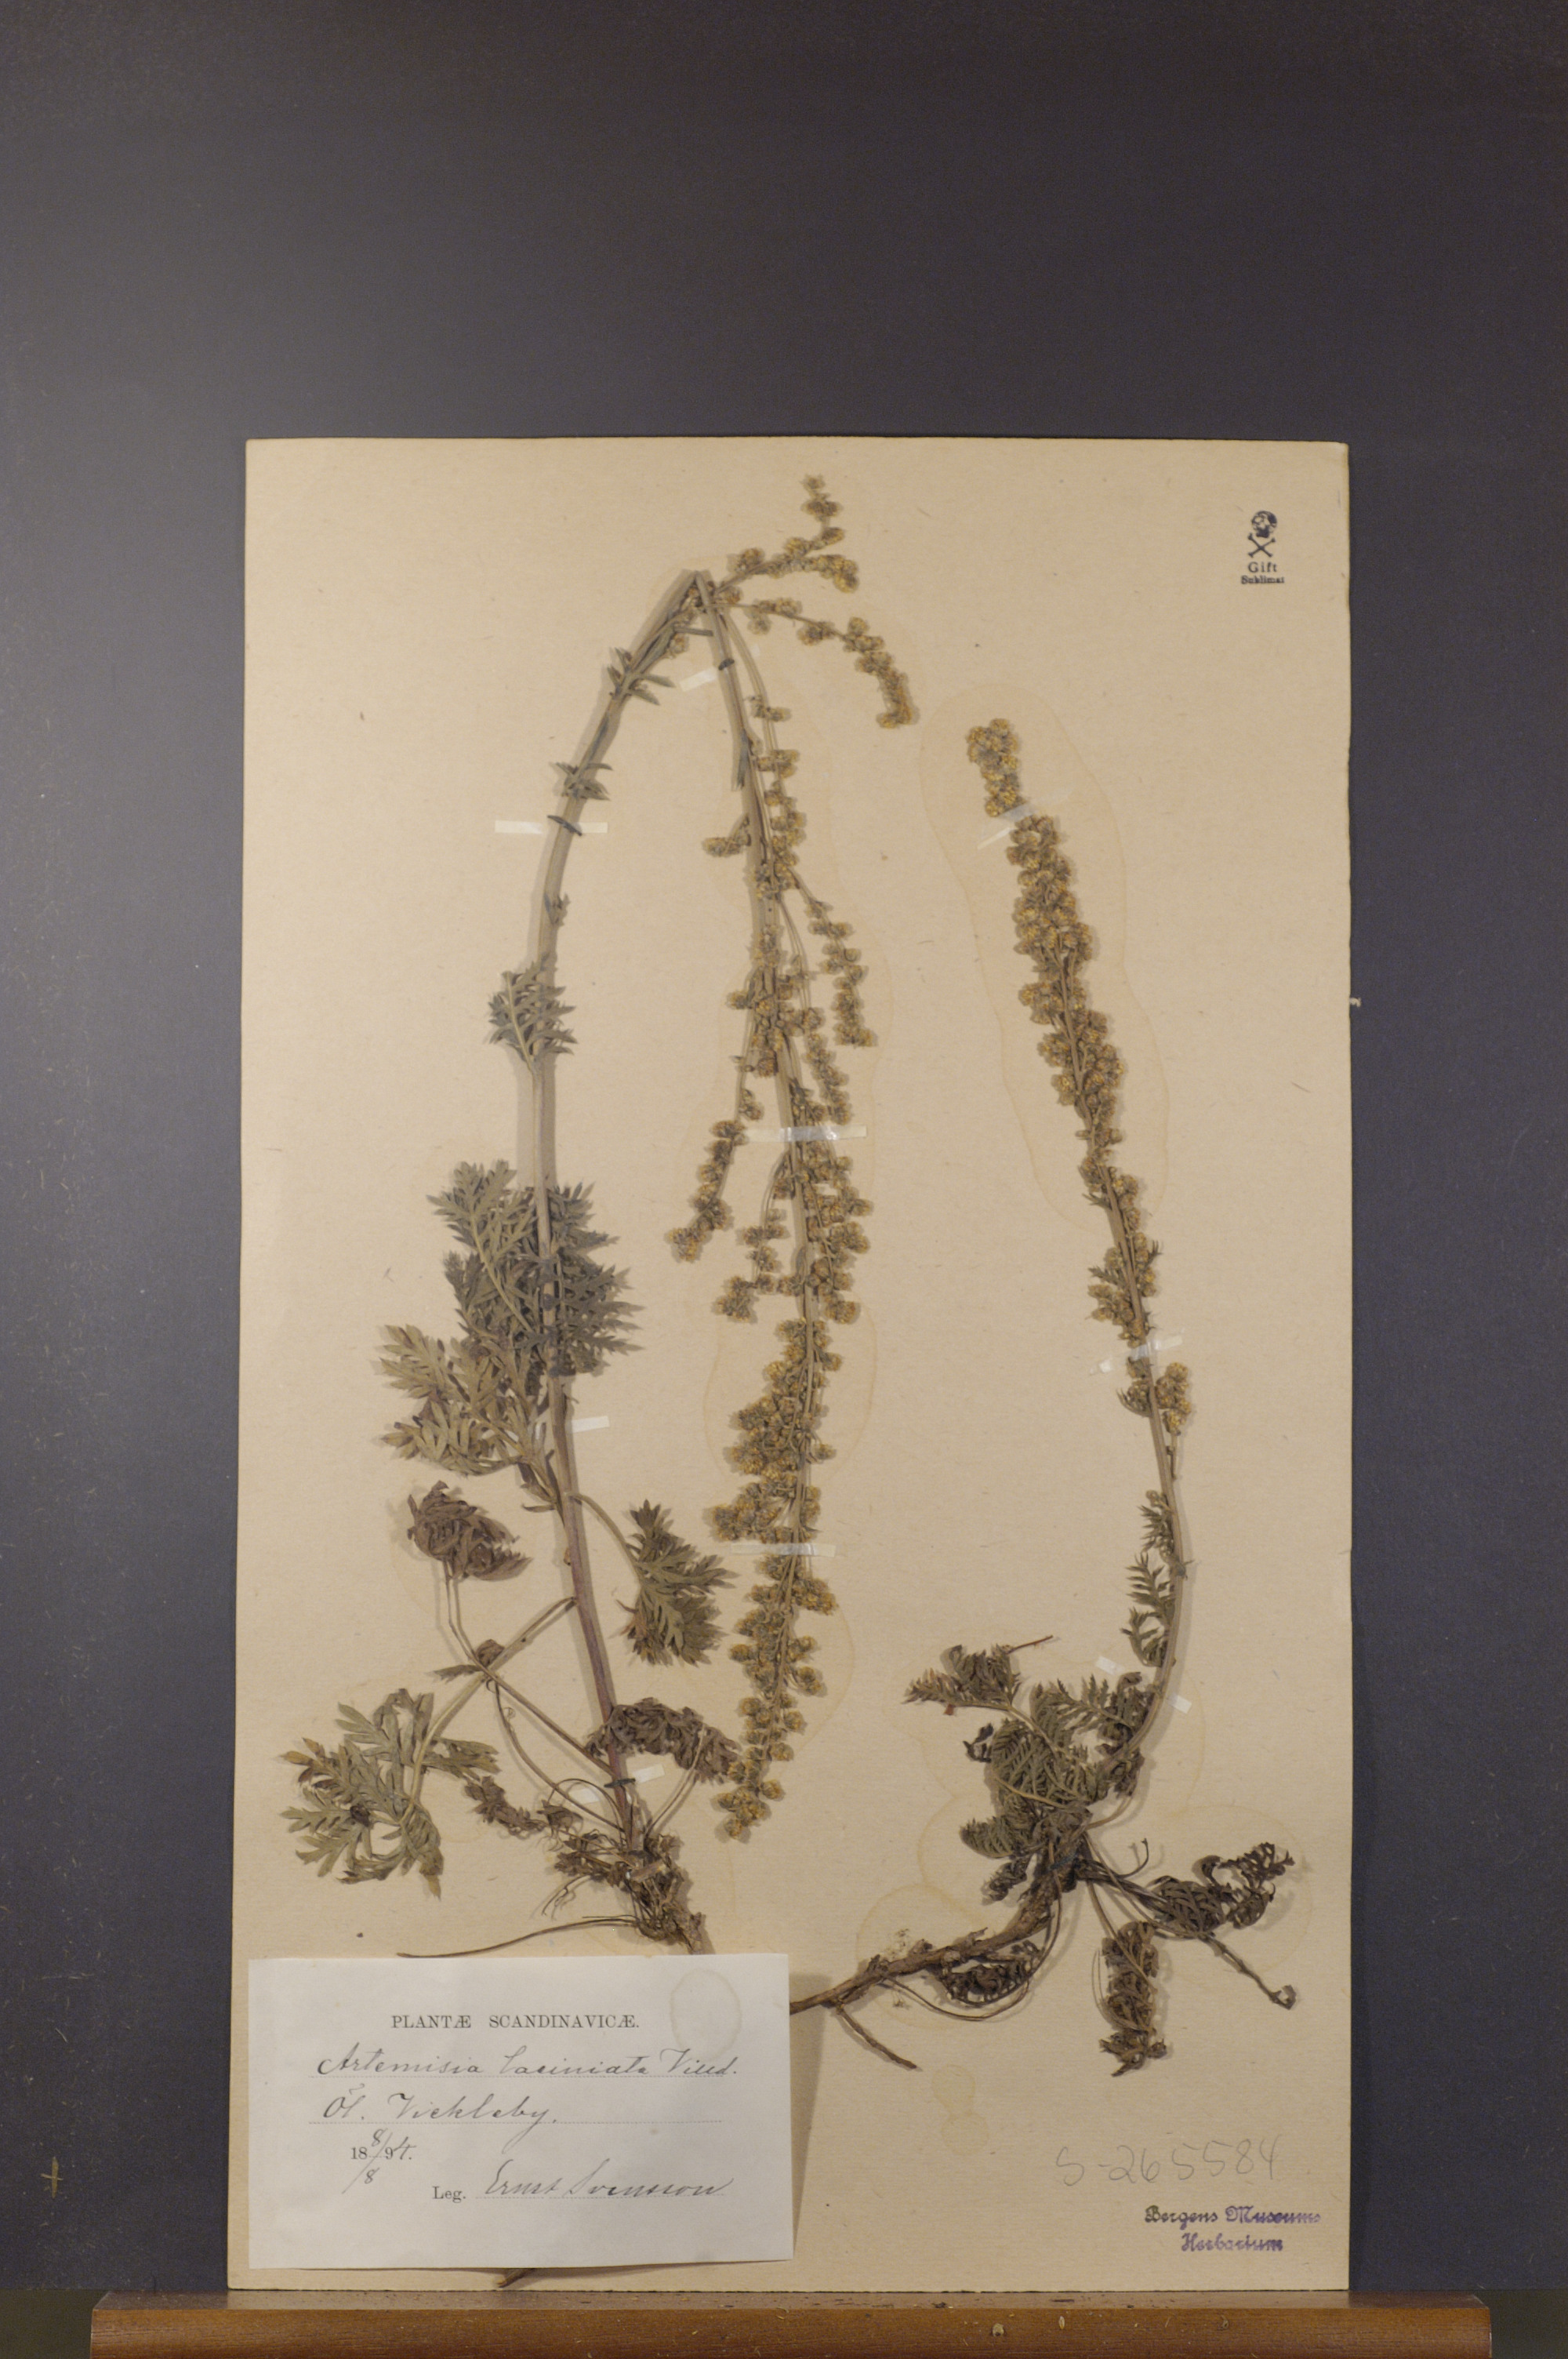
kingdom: Plantae
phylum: Tracheophyta
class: Magnoliopsida
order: Asterales
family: Asteraceae
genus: Artemisia
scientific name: Artemisia laciniata
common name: Siberian wormwood
